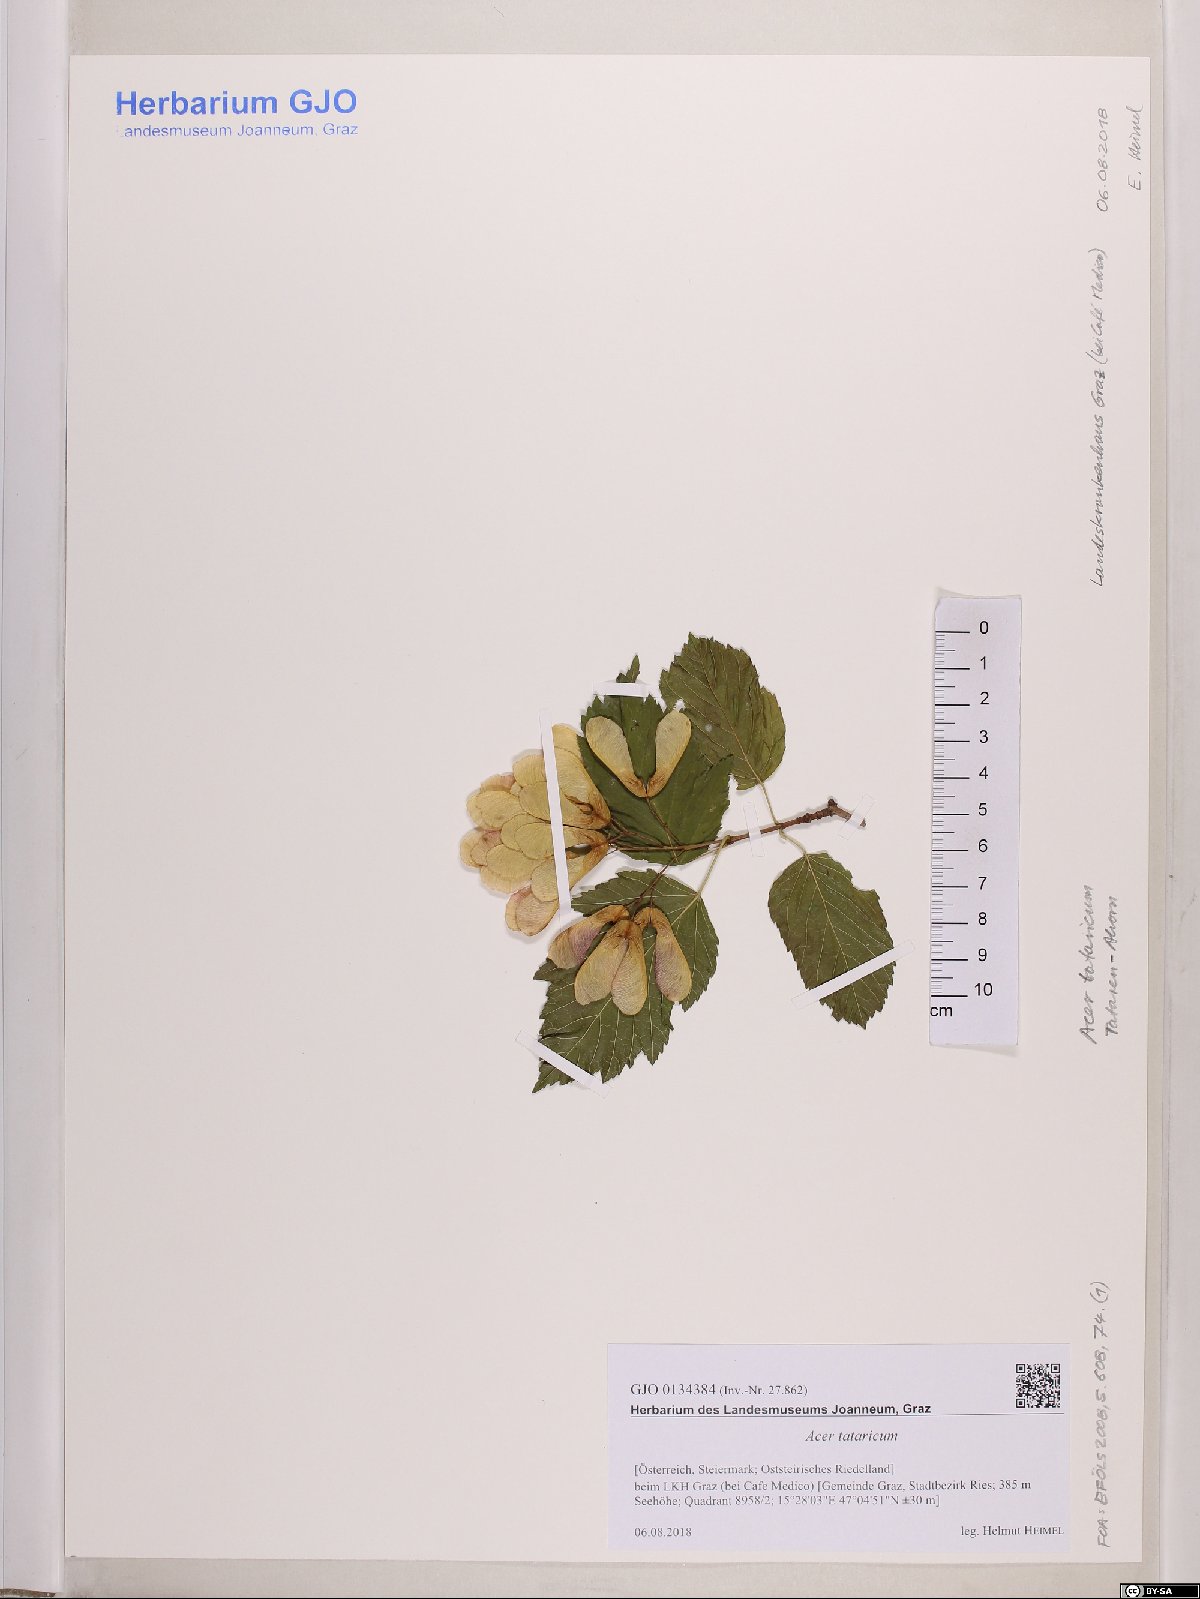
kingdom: Plantae
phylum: Tracheophyta
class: Magnoliopsida
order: Sapindales
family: Sapindaceae
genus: Acer
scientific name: Acer tataricum
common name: Tartar maple
